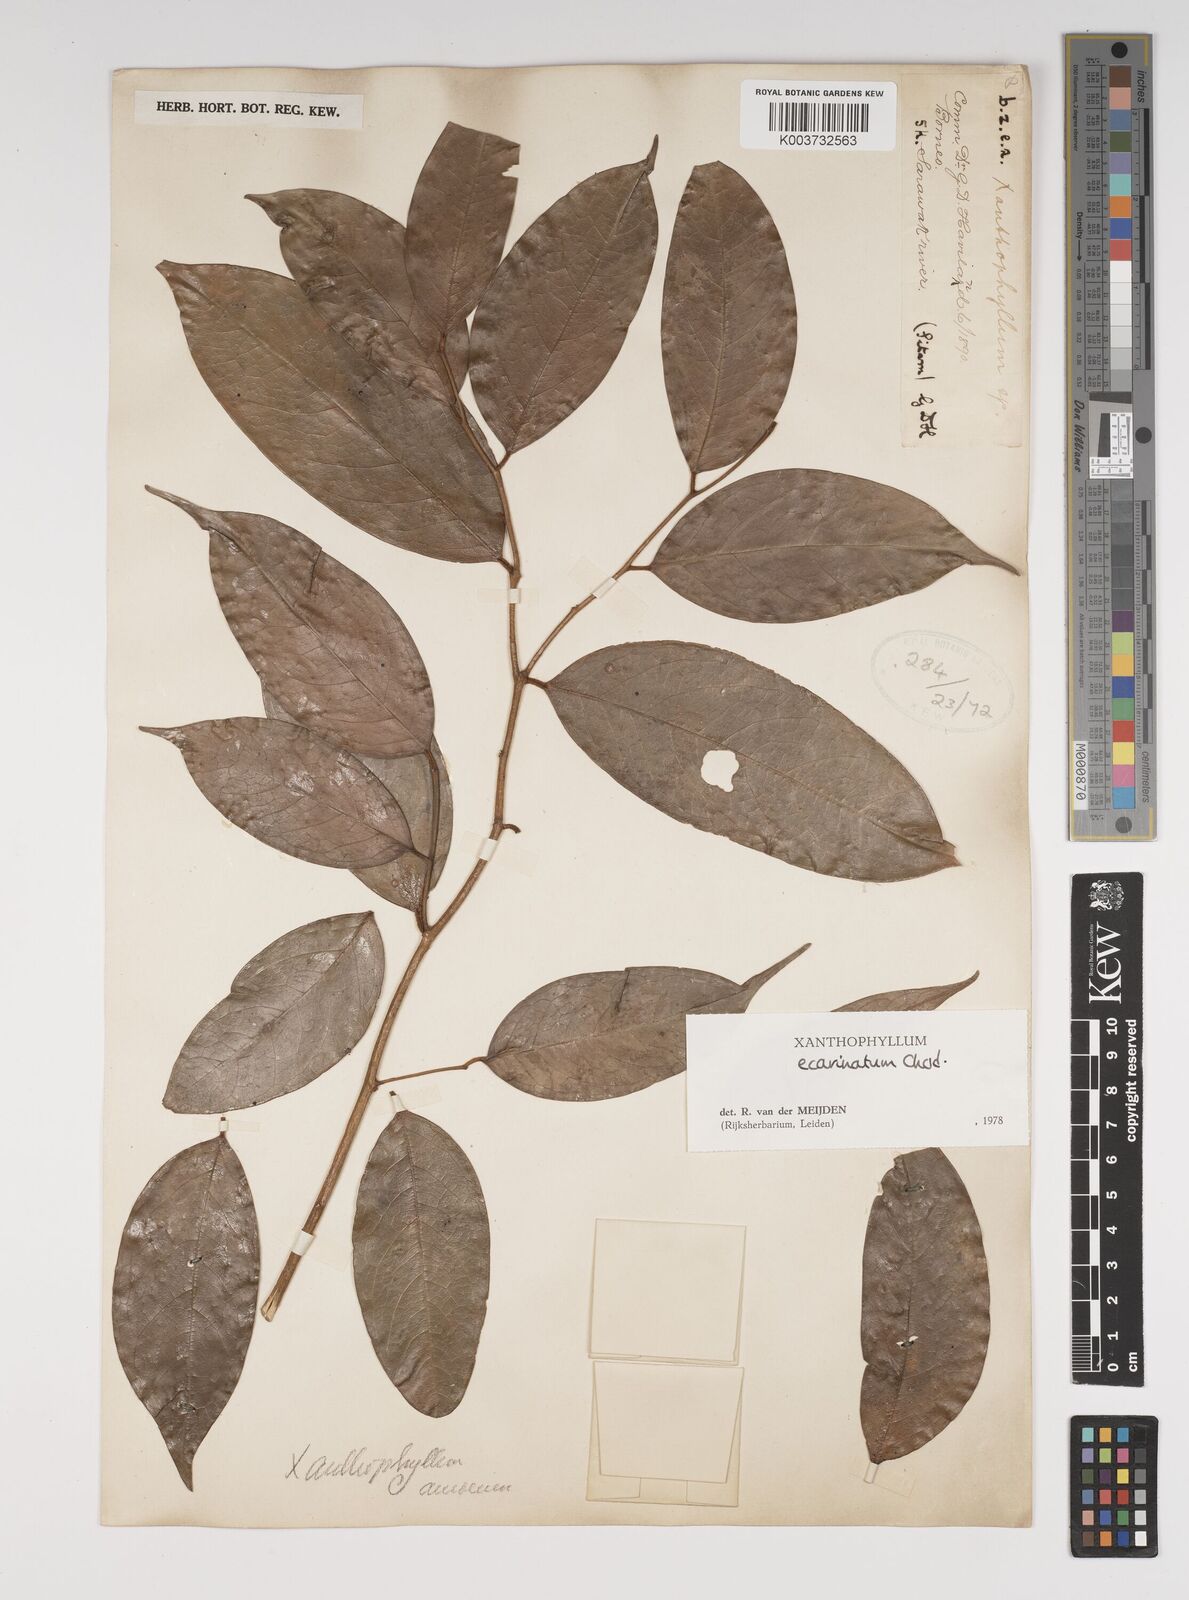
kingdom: Plantae
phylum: Tracheophyta
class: Magnoliopsida
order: Fabales
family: Polygalaceae
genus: Xanthophyllum
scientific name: Xanthophyllum ecarinatum
